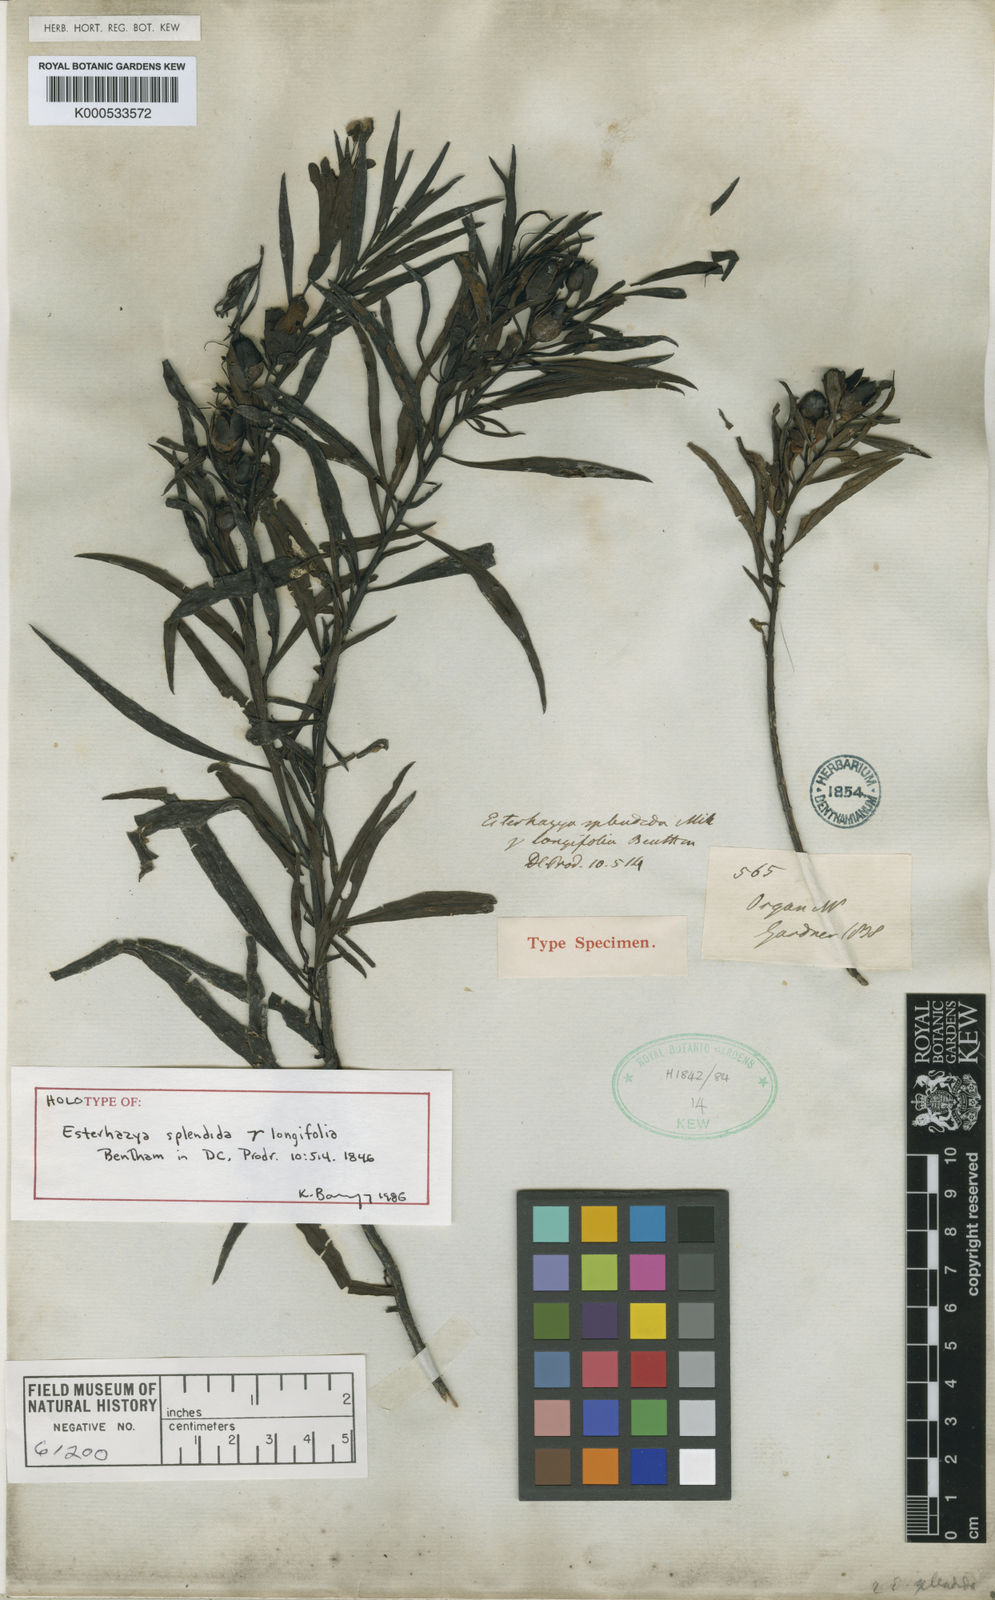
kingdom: Plantae
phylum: Tracheophyta
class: Magnoliopsida
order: Lamiales
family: Orobanchaceae
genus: Esterhazya
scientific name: Esterhazya splendida
